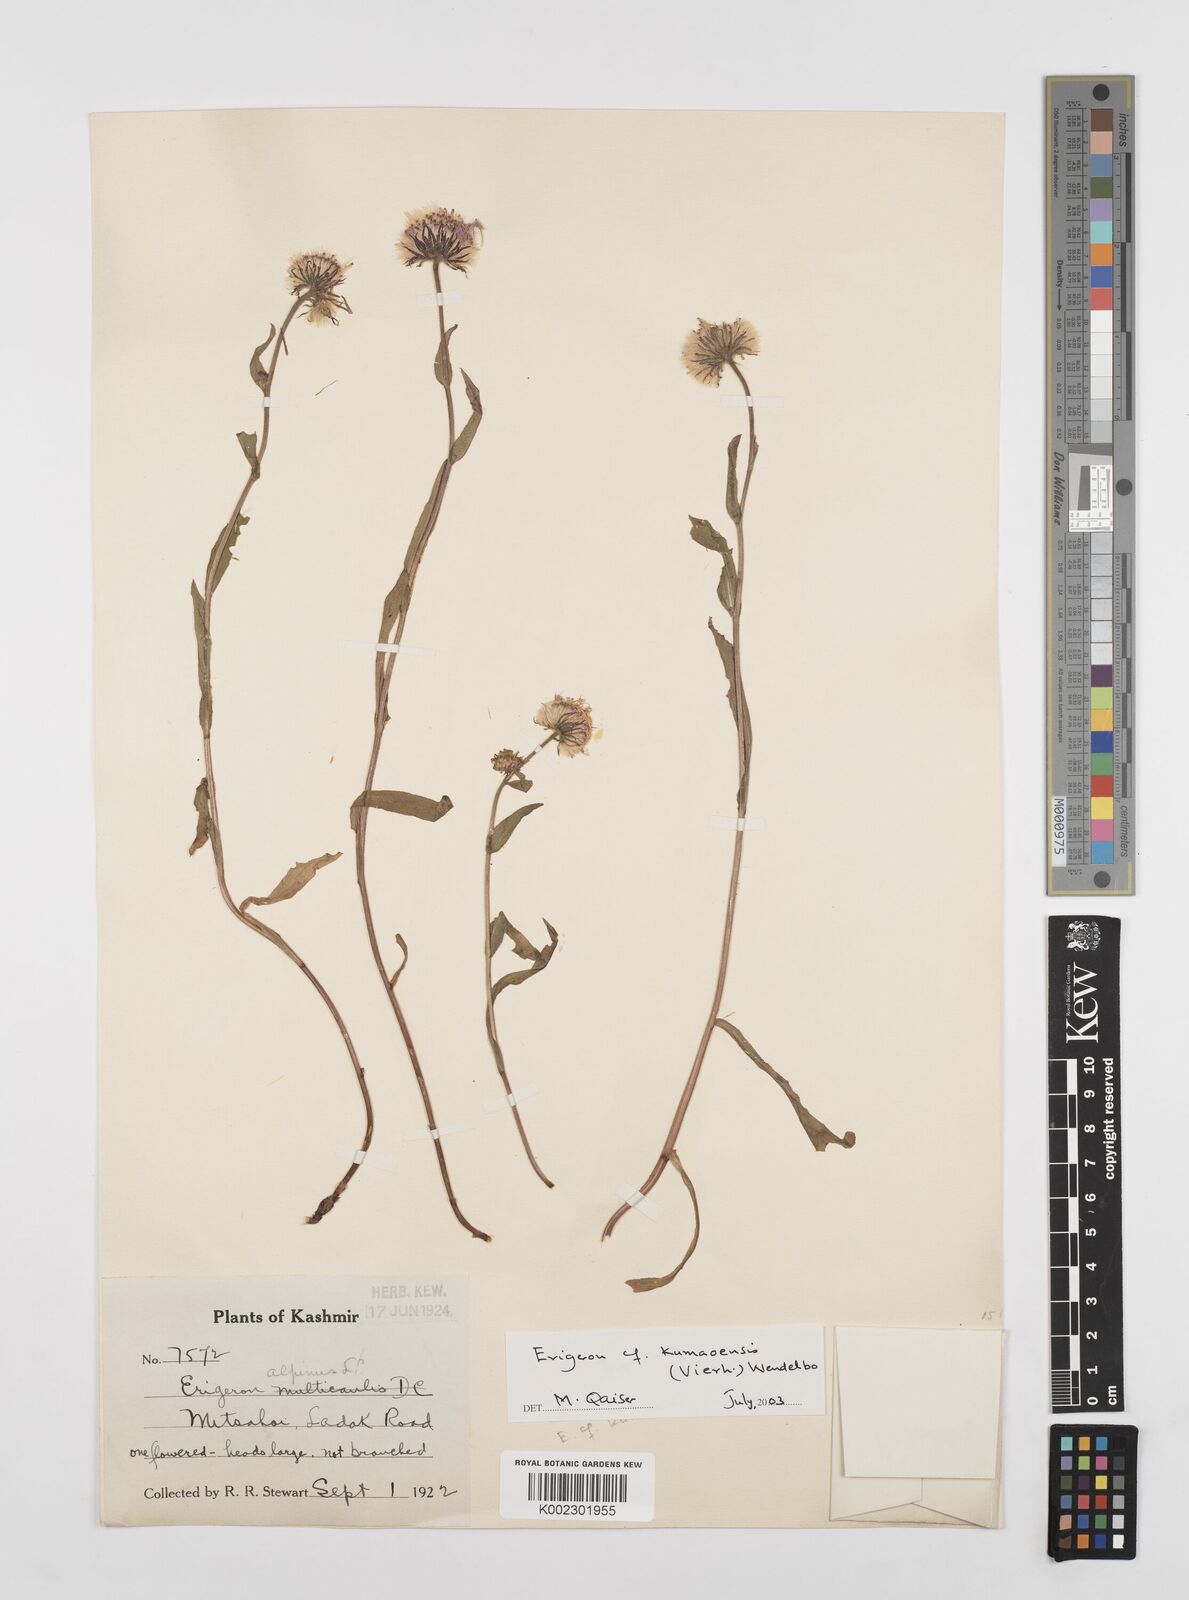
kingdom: Plantae
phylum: Tracheophyta
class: Magnoliopsida
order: Asterales
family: Asteraceae
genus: Erigeron
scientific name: Erigeron alpinus
